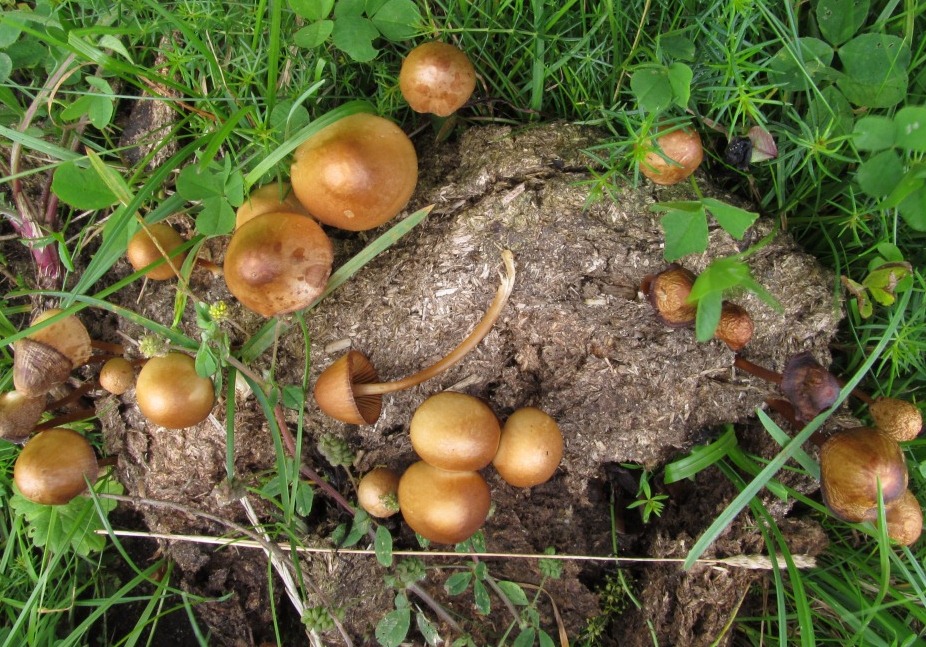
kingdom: Fungi
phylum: Basidiomycota
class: Agaricomycetes
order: Agaricales
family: Bolbitiaceae
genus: Conocybe
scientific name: Conocybe singeriana
